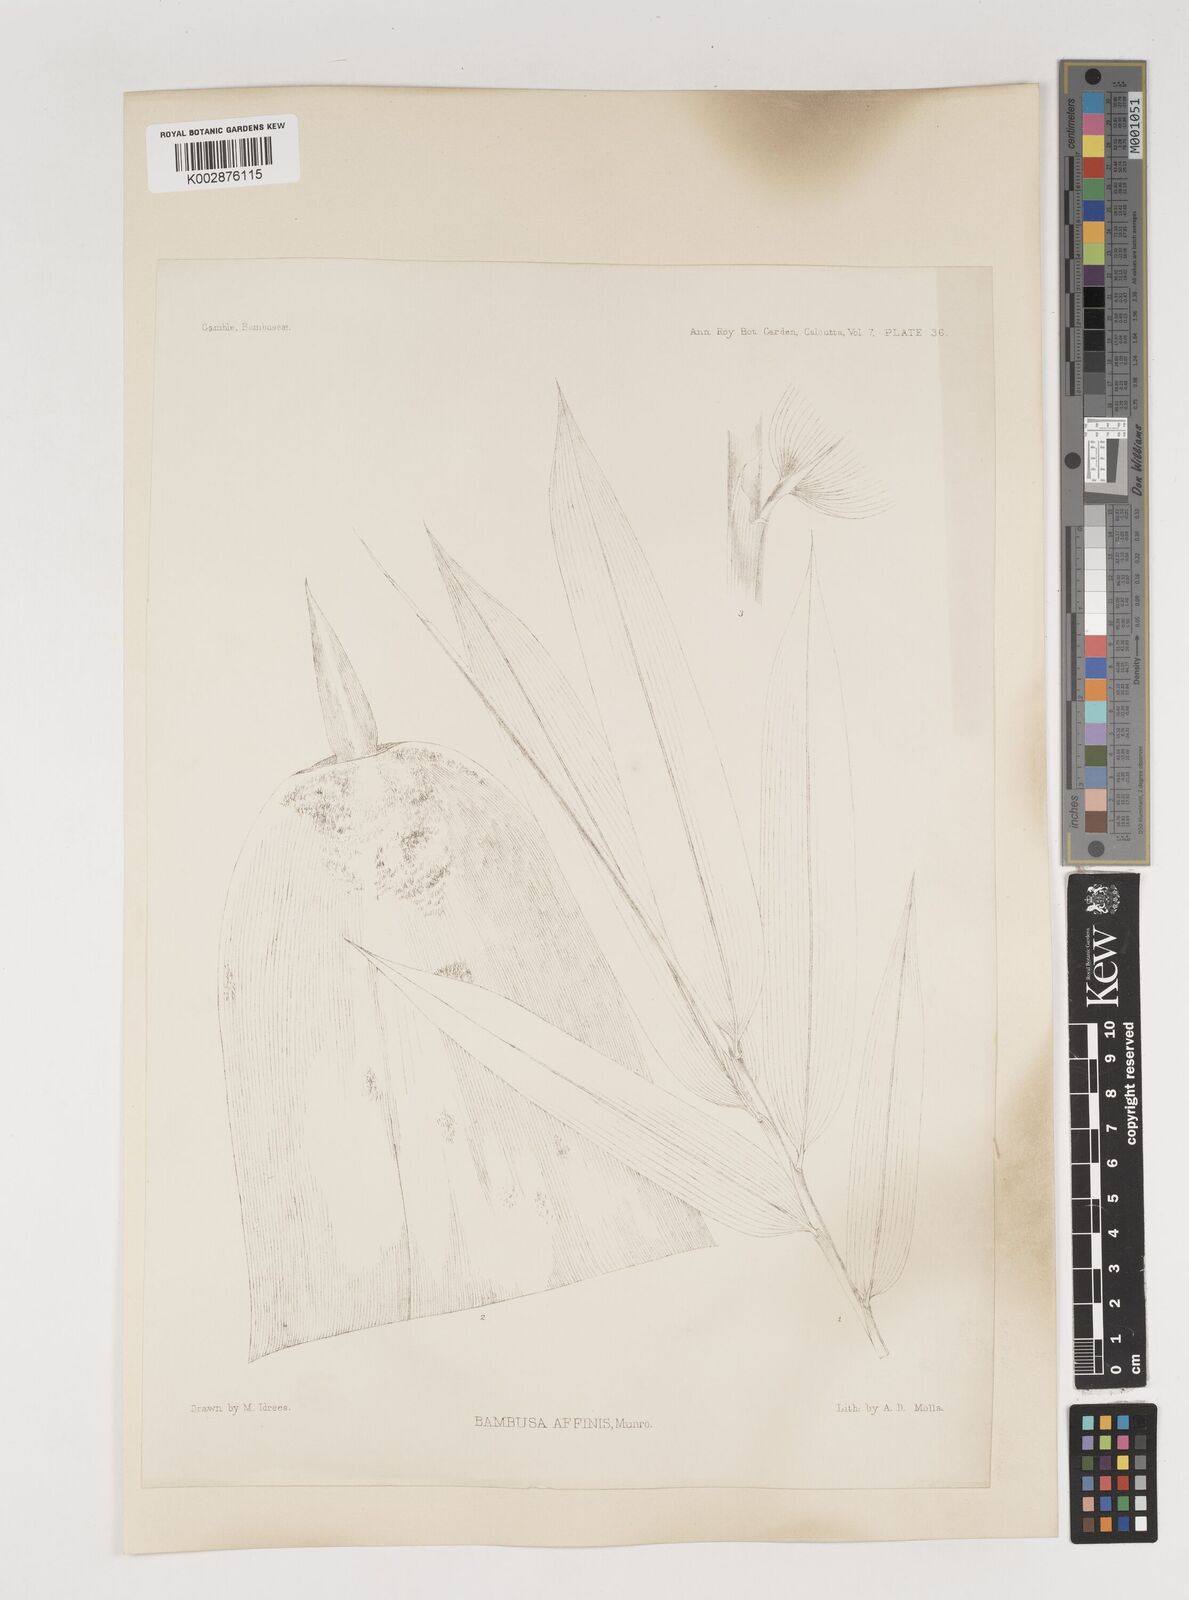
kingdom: Plantae
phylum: Tracheophyta
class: Liliopsida
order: Poales
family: Poaceae
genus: Bambusa
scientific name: Bambusa affinis
